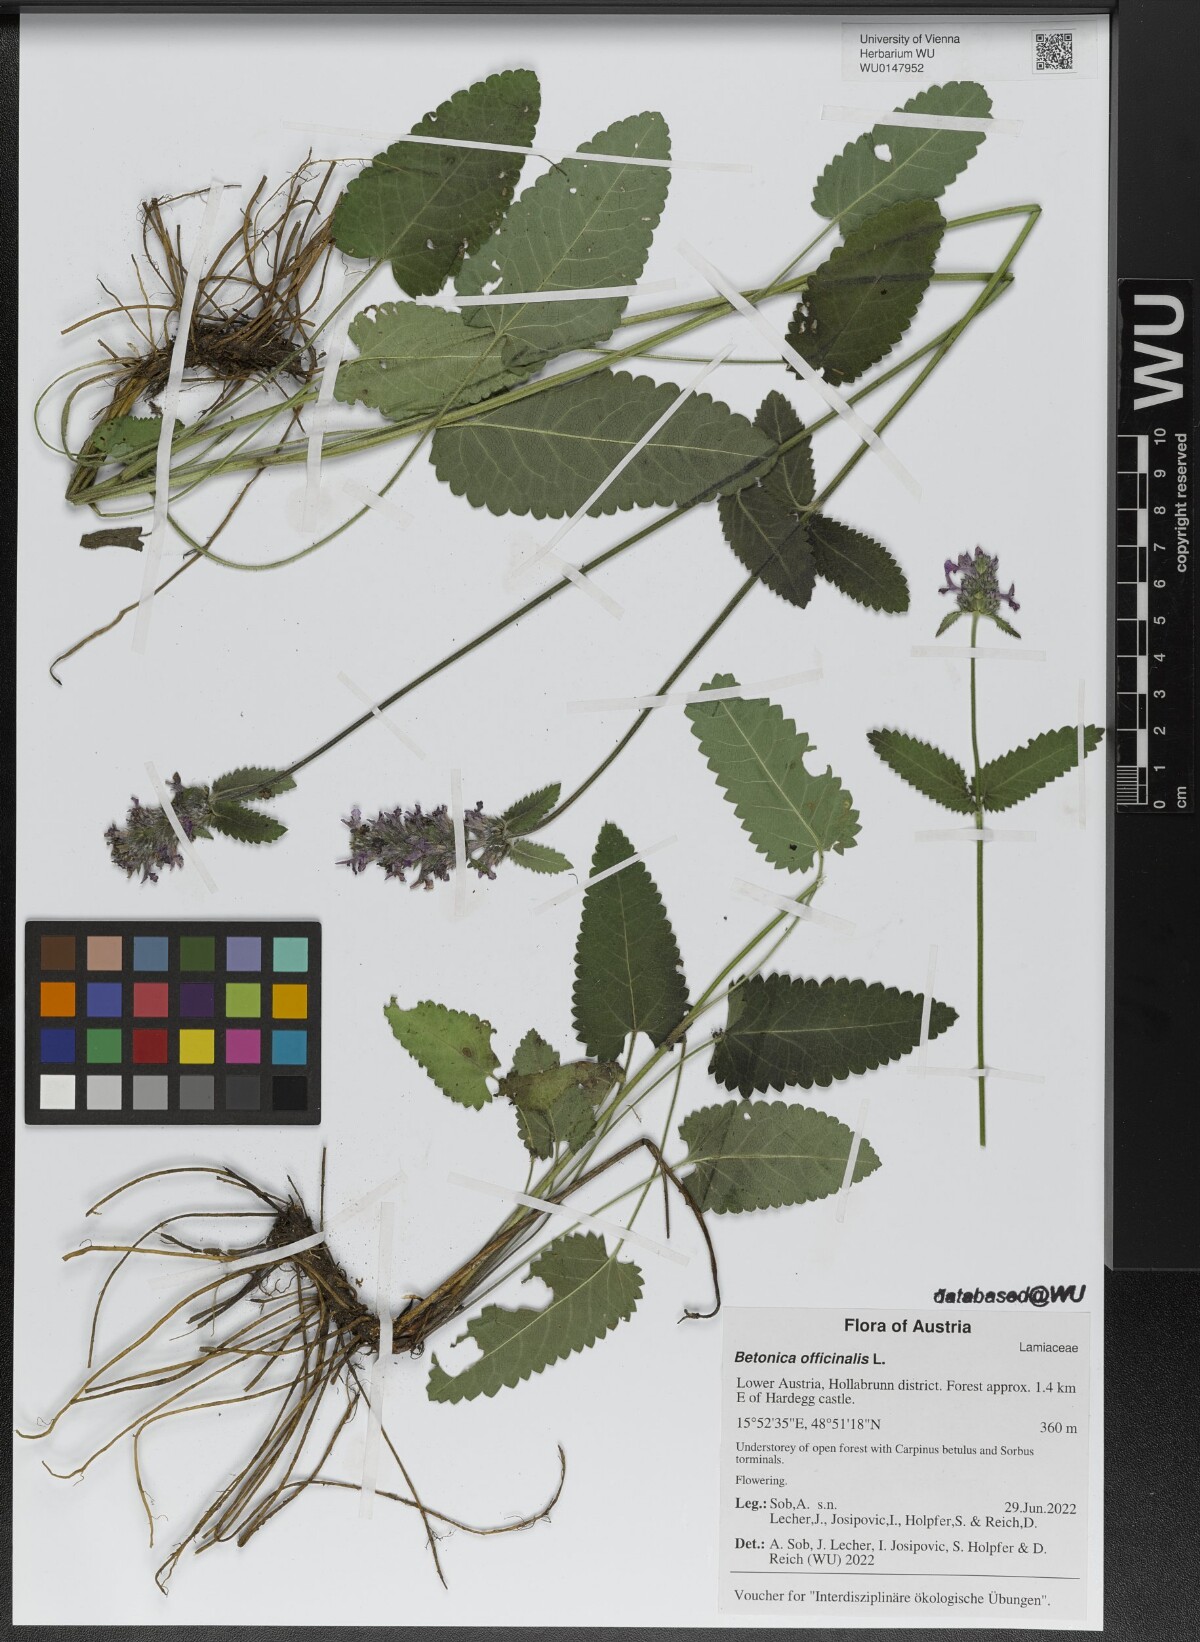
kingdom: Plantae
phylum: Tracheophyta
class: Magnoliopsida
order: Lamiales
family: Lamiaceae
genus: Betonica
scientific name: Betonica officinalis
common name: Bishop's-wort
